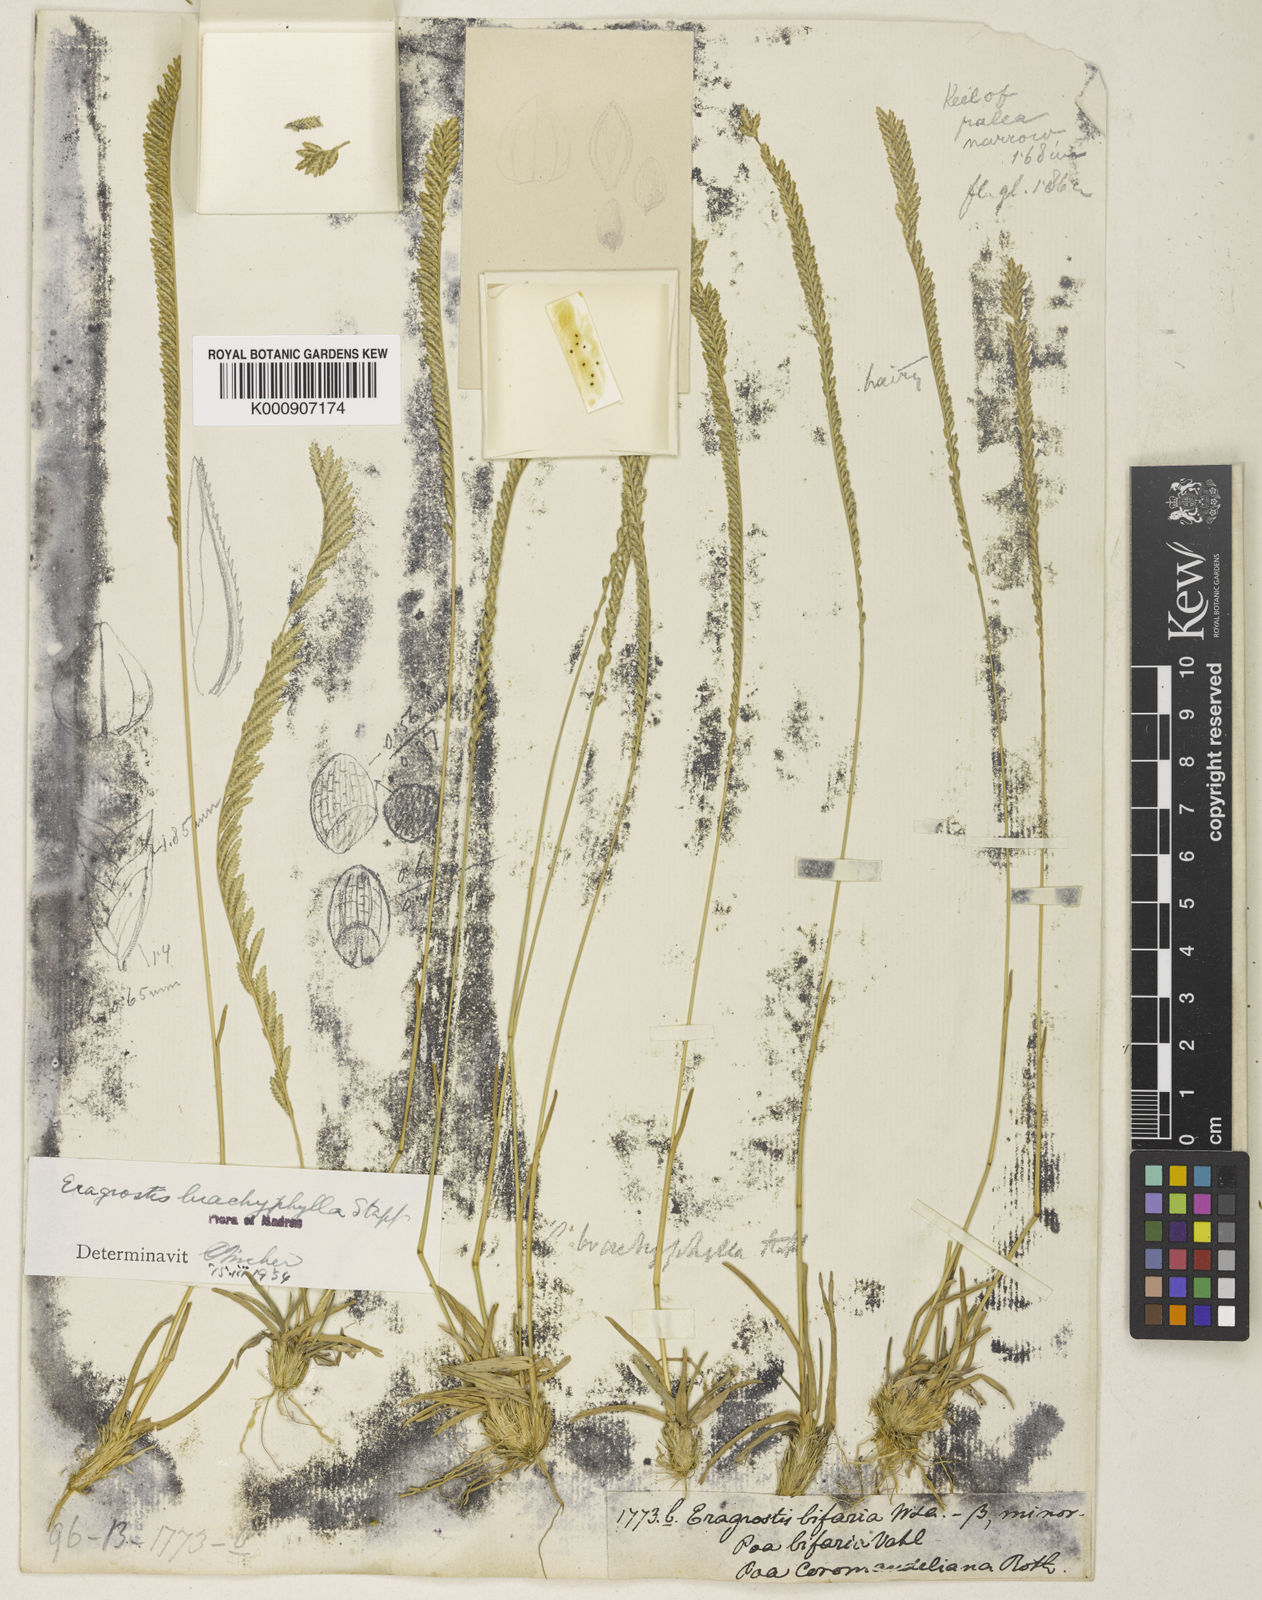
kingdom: Plantae
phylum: Tracheophyta
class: Liliopsida
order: Poales
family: Poaceae
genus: Eragrostiella
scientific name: Eragrostiella brachyphylla
